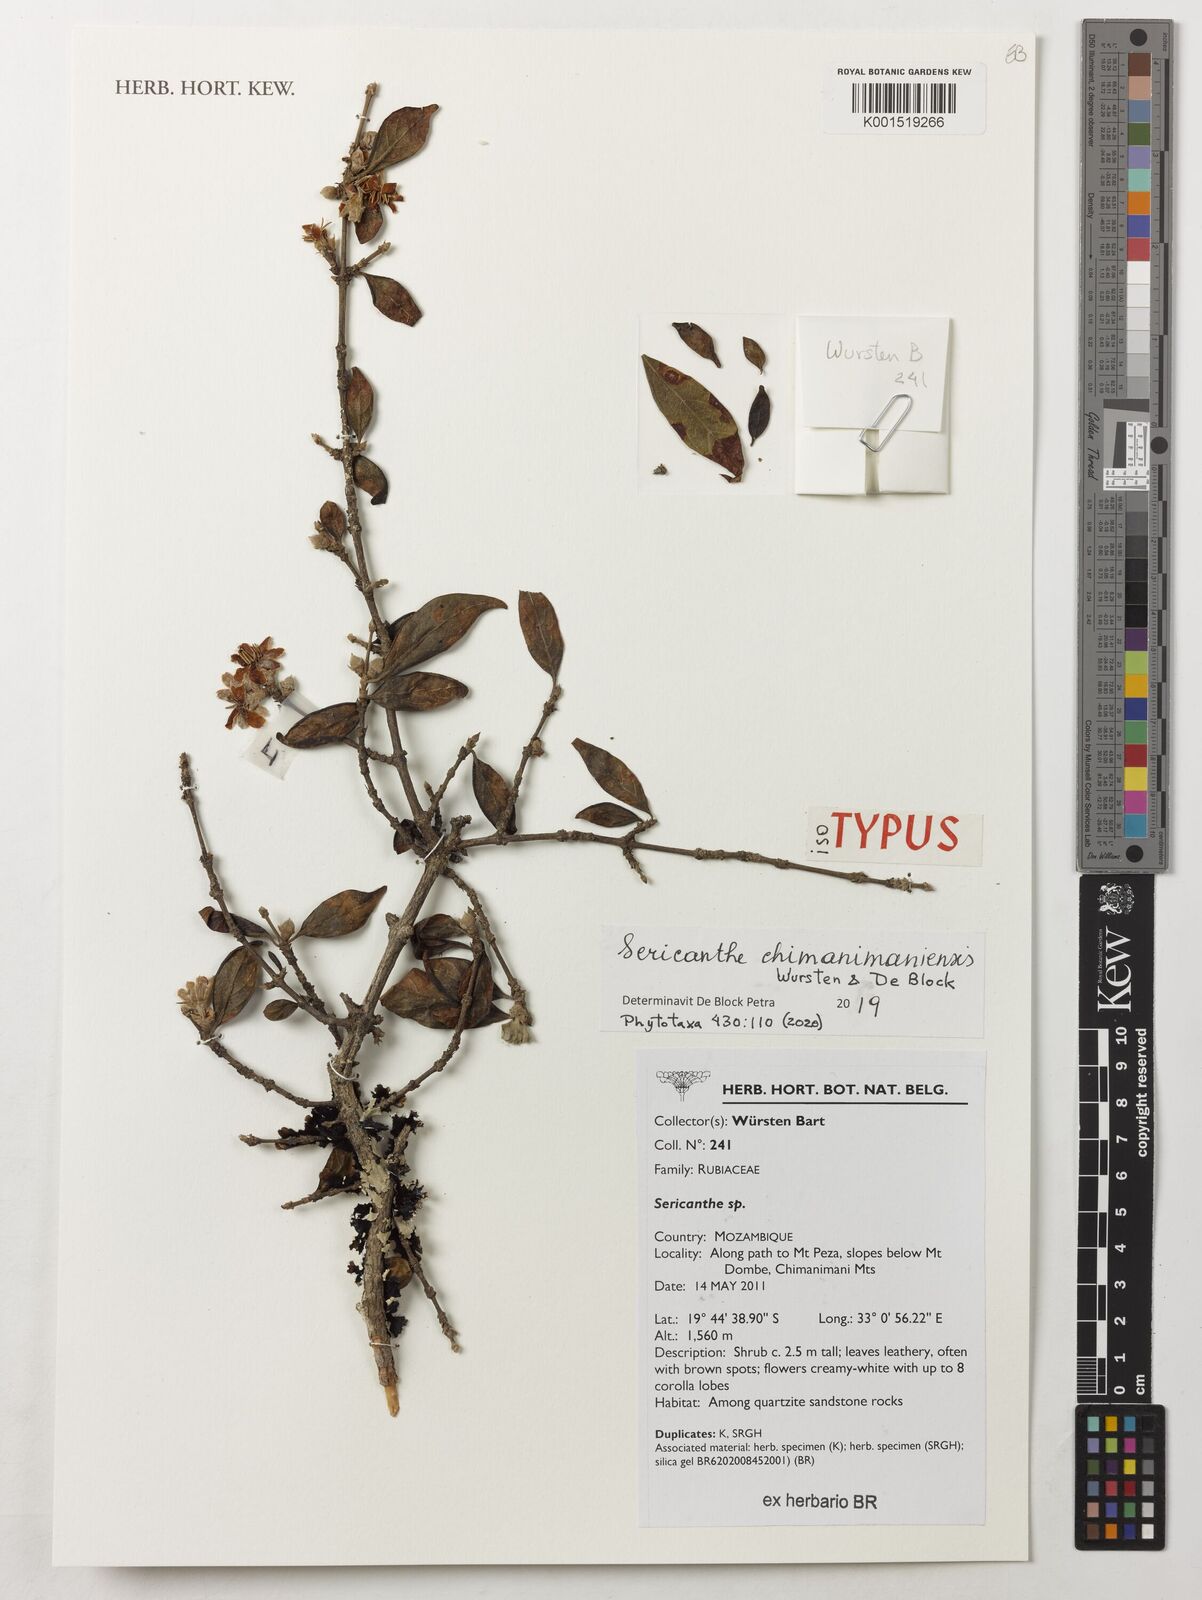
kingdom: Plantae
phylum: Tracheophyta
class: Magnoliopsida
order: Gentianales
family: Rubiaceae
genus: Sericanthe
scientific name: Sericanthe
